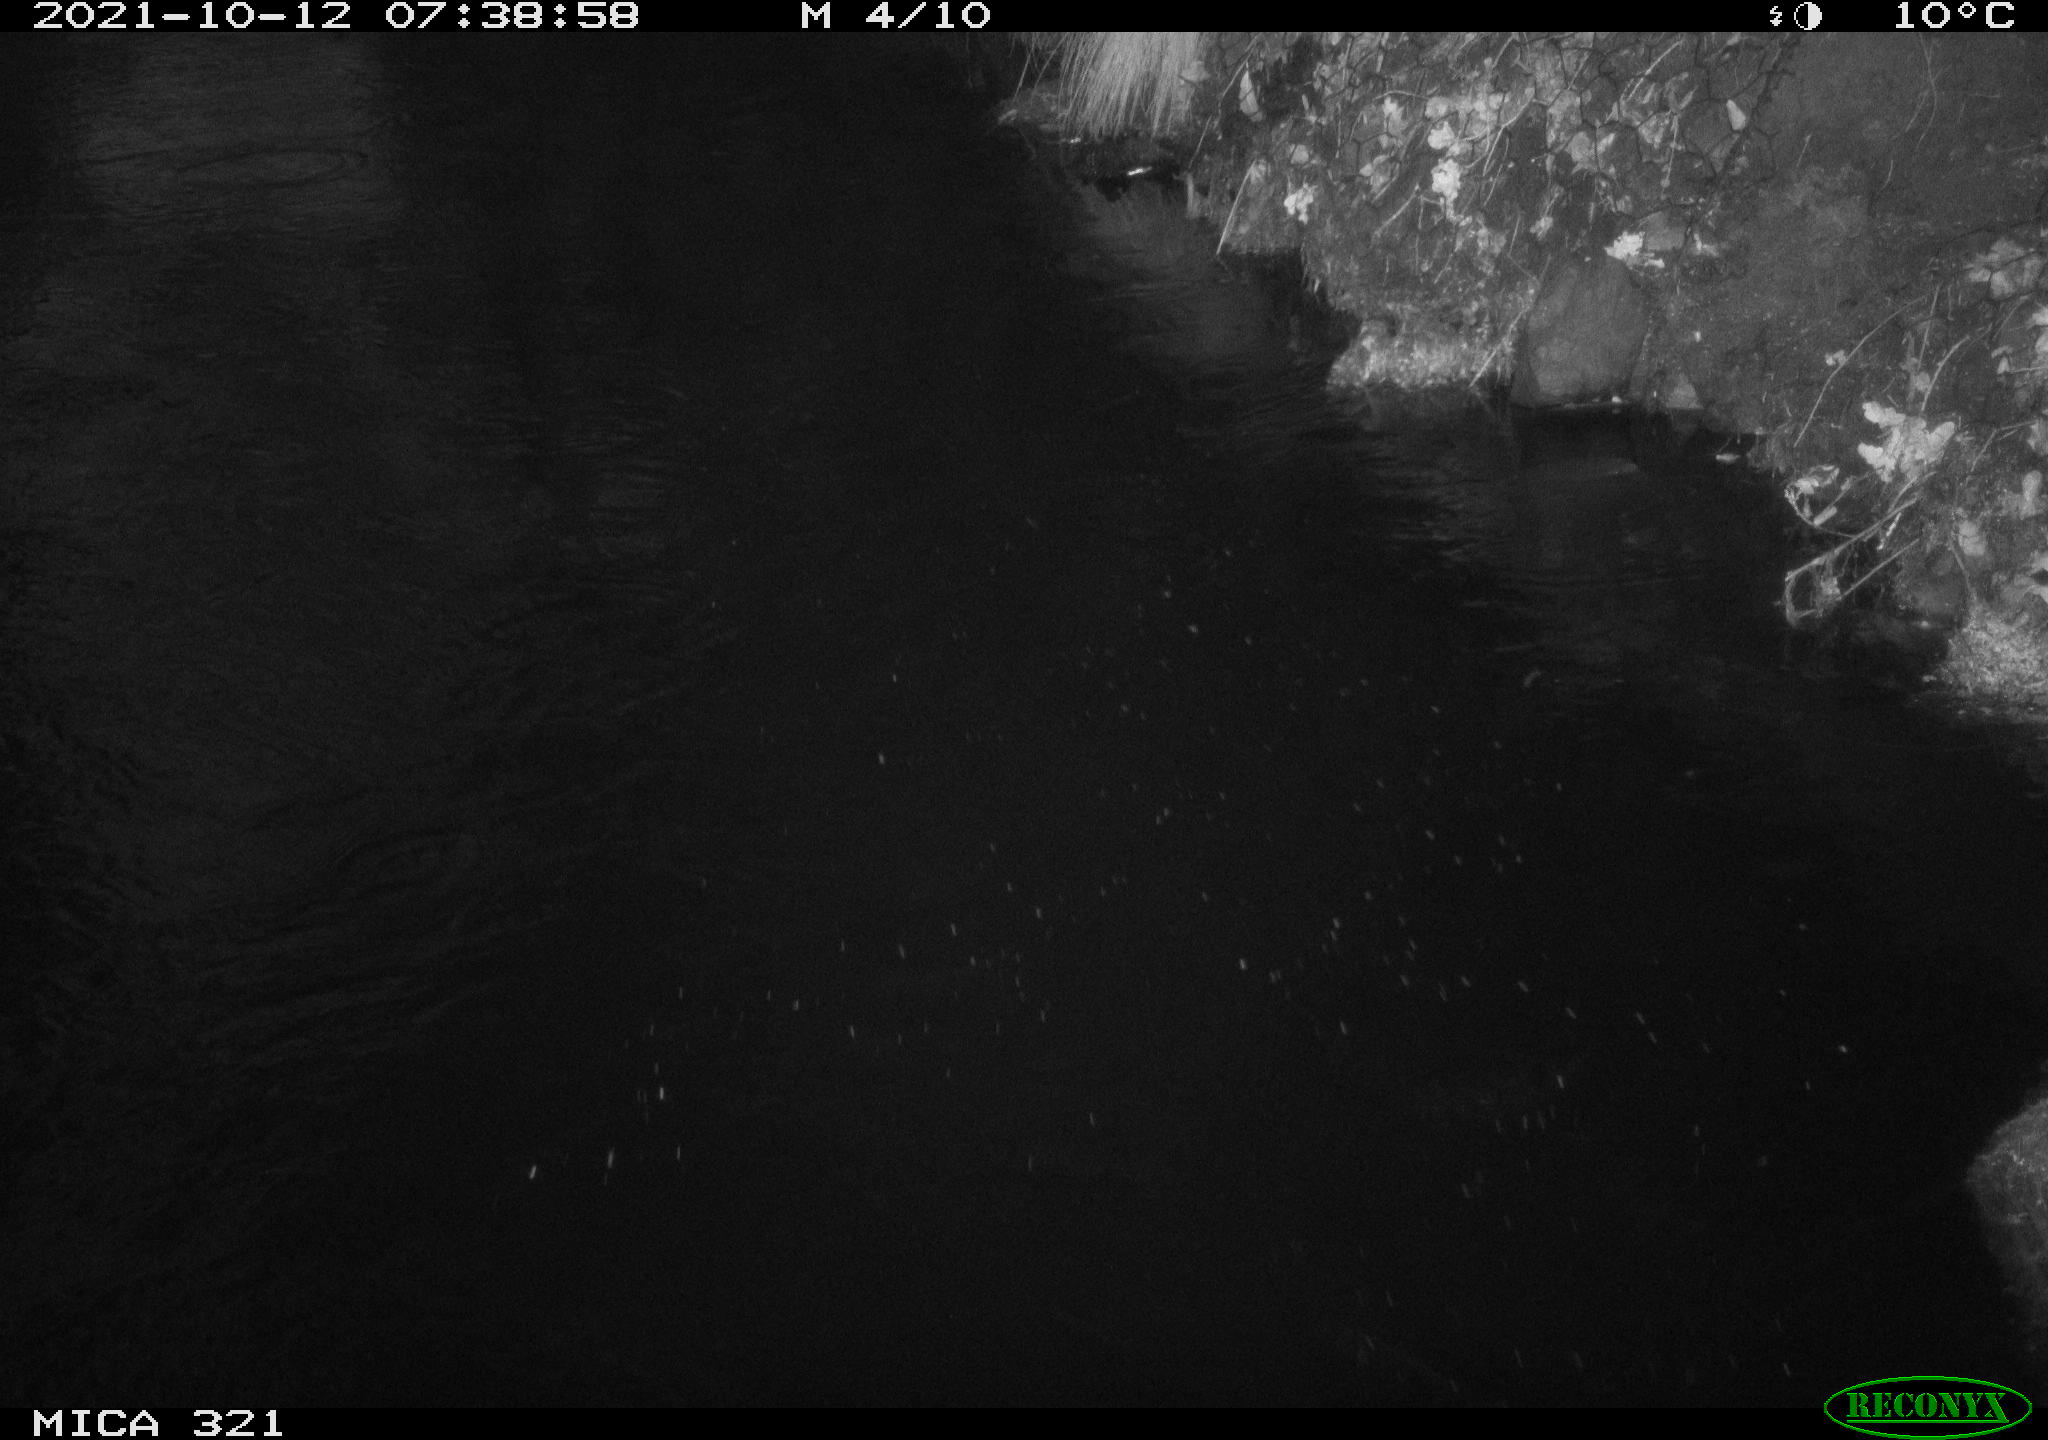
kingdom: Animalia
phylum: Chordata
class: Aves
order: Anseriformes
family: Anatidae
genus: Anas
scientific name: Anas platyrhynchos
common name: Mallard
